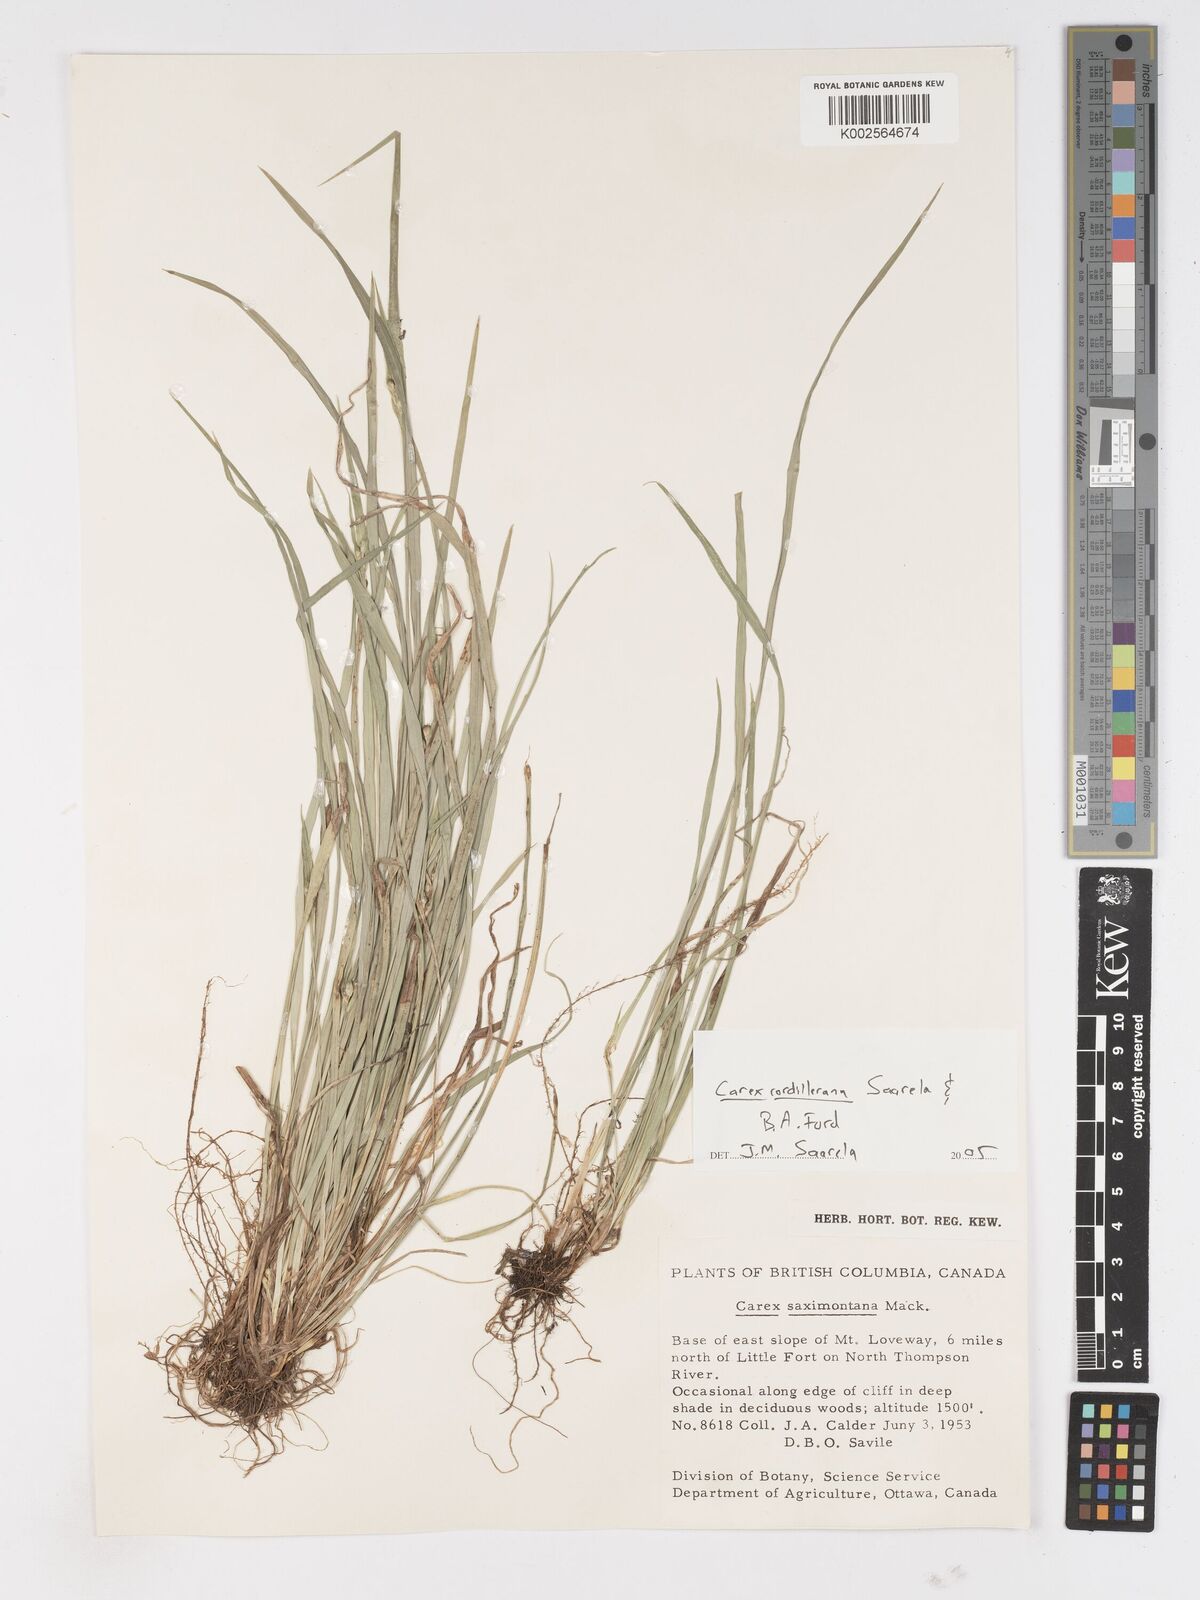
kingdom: Plantae
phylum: Tracheophyta
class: Liliopsida
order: Poales
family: Cyperaceae
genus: Carex
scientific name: Carex cordillerana
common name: Cordilleran sedge
